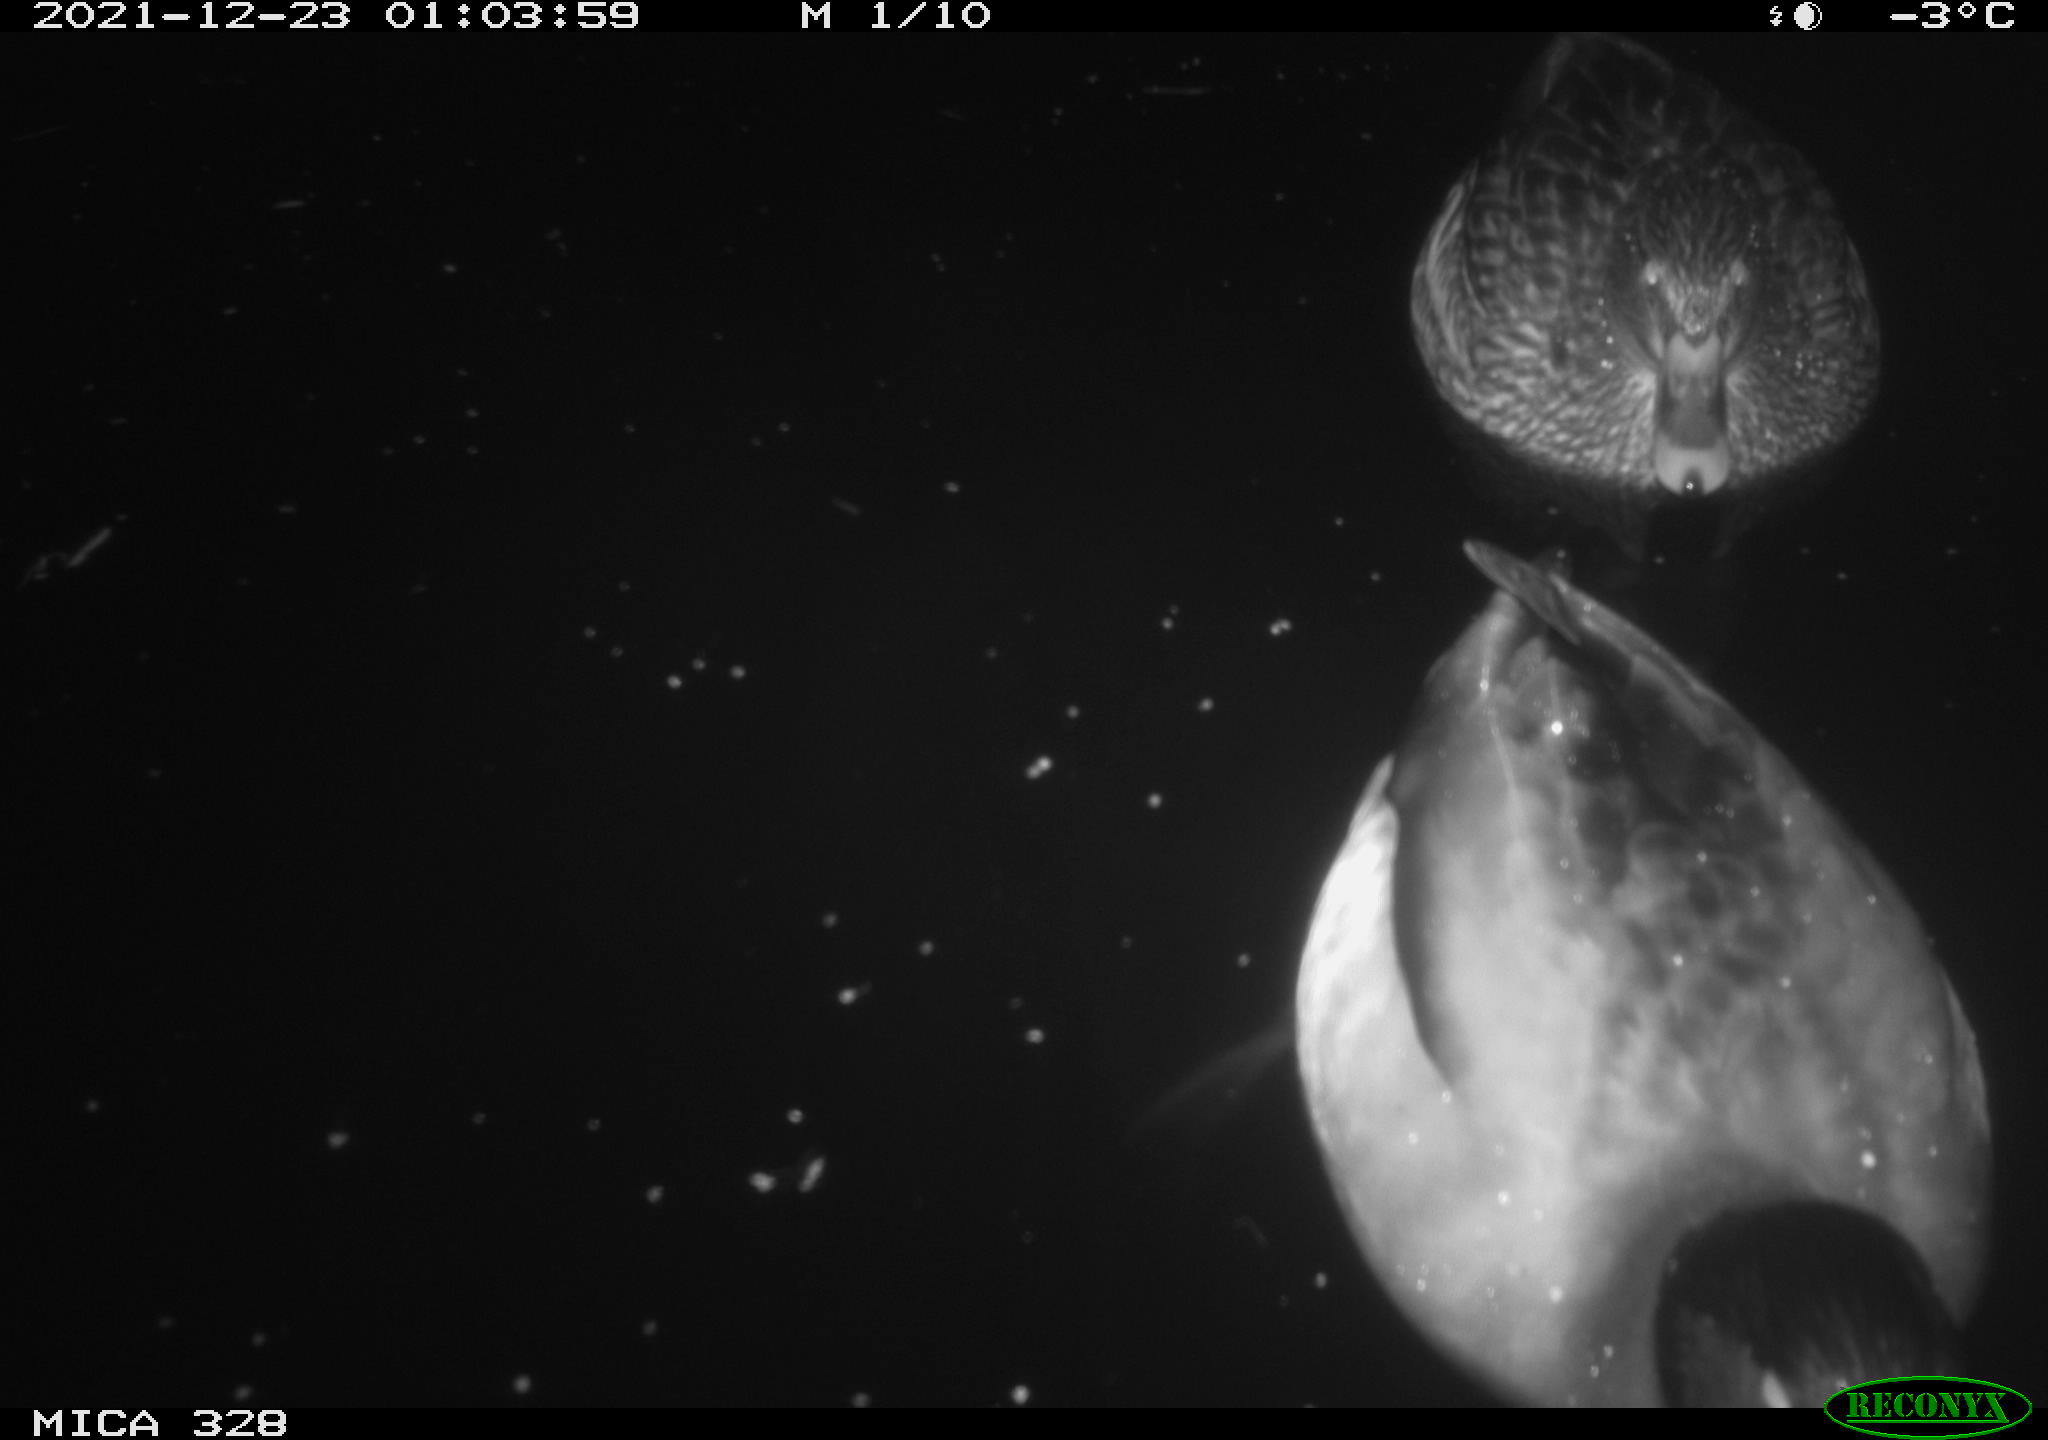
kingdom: Animalia
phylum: Chordata
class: Aves
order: Anseriformes
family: Anatidae
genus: Anas
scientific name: Anas platyrhynchos
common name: Mallard
